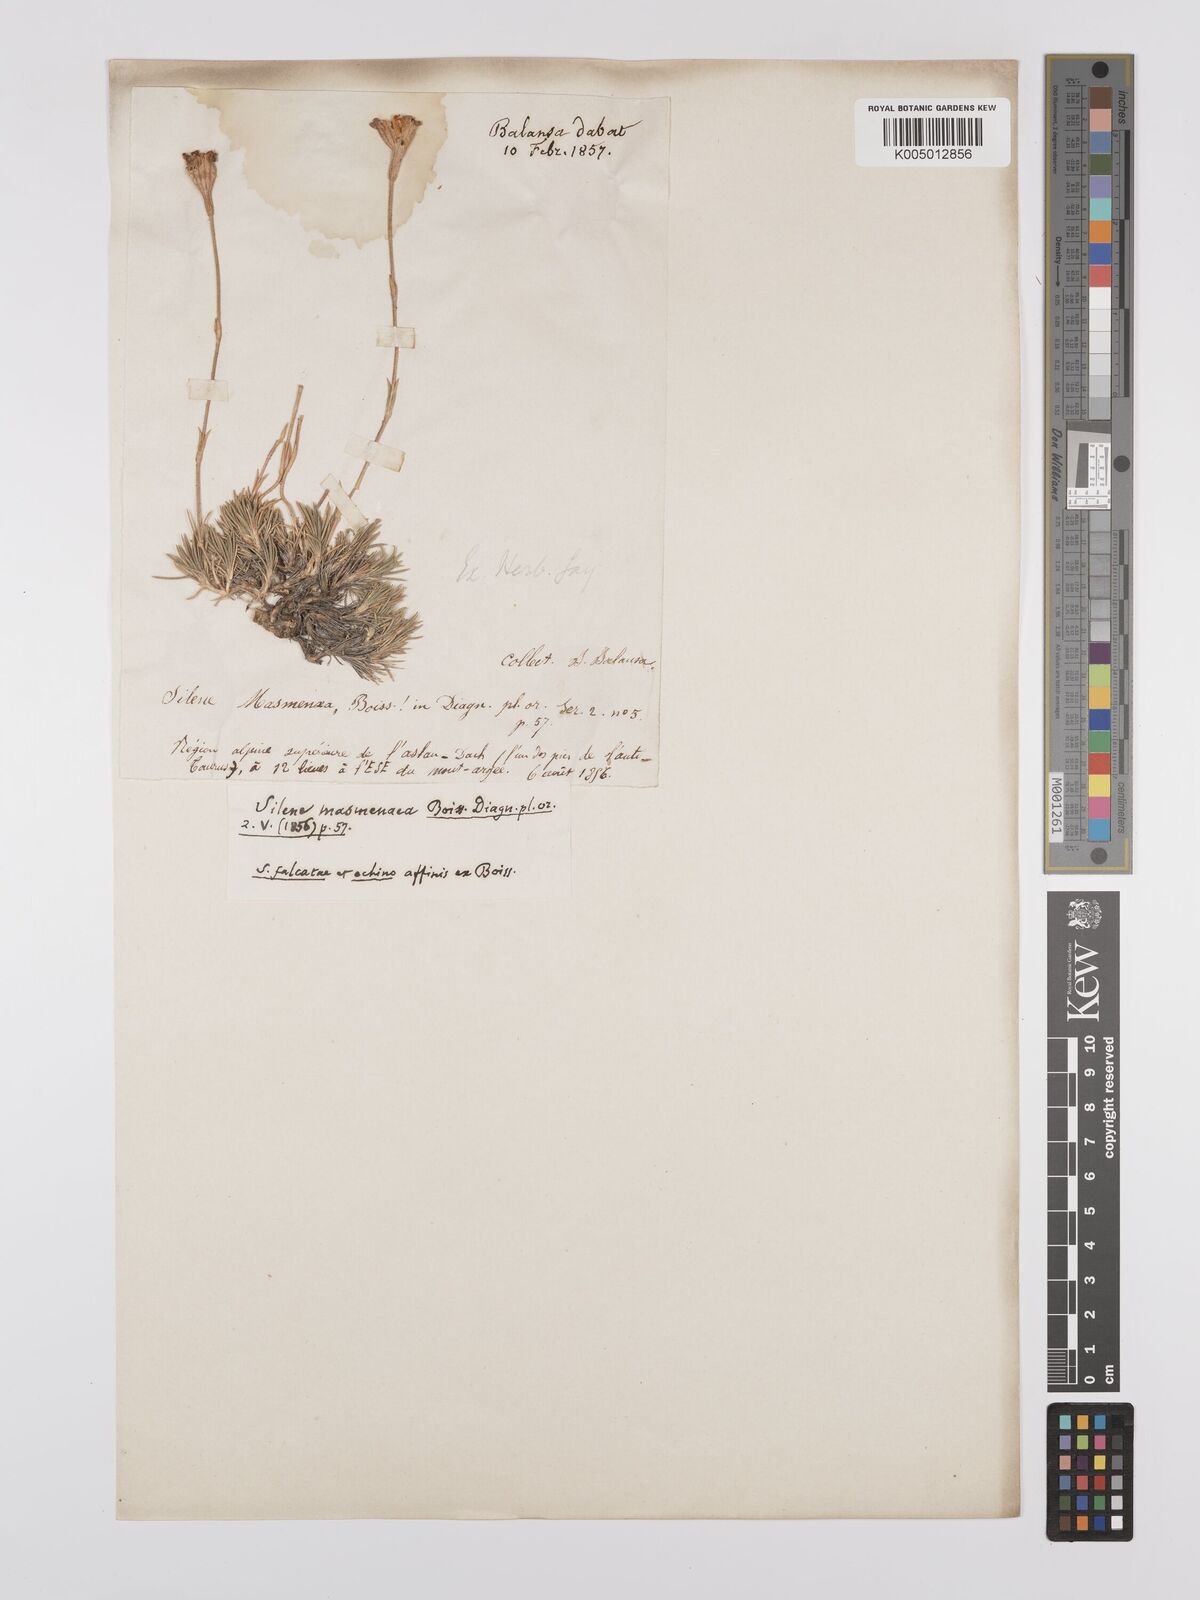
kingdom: Plantae
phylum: Tracheophyta
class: Magnoliopsida
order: Caryophyllales
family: Caryophyllaceae
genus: Silene
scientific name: Silene caryophylloides
